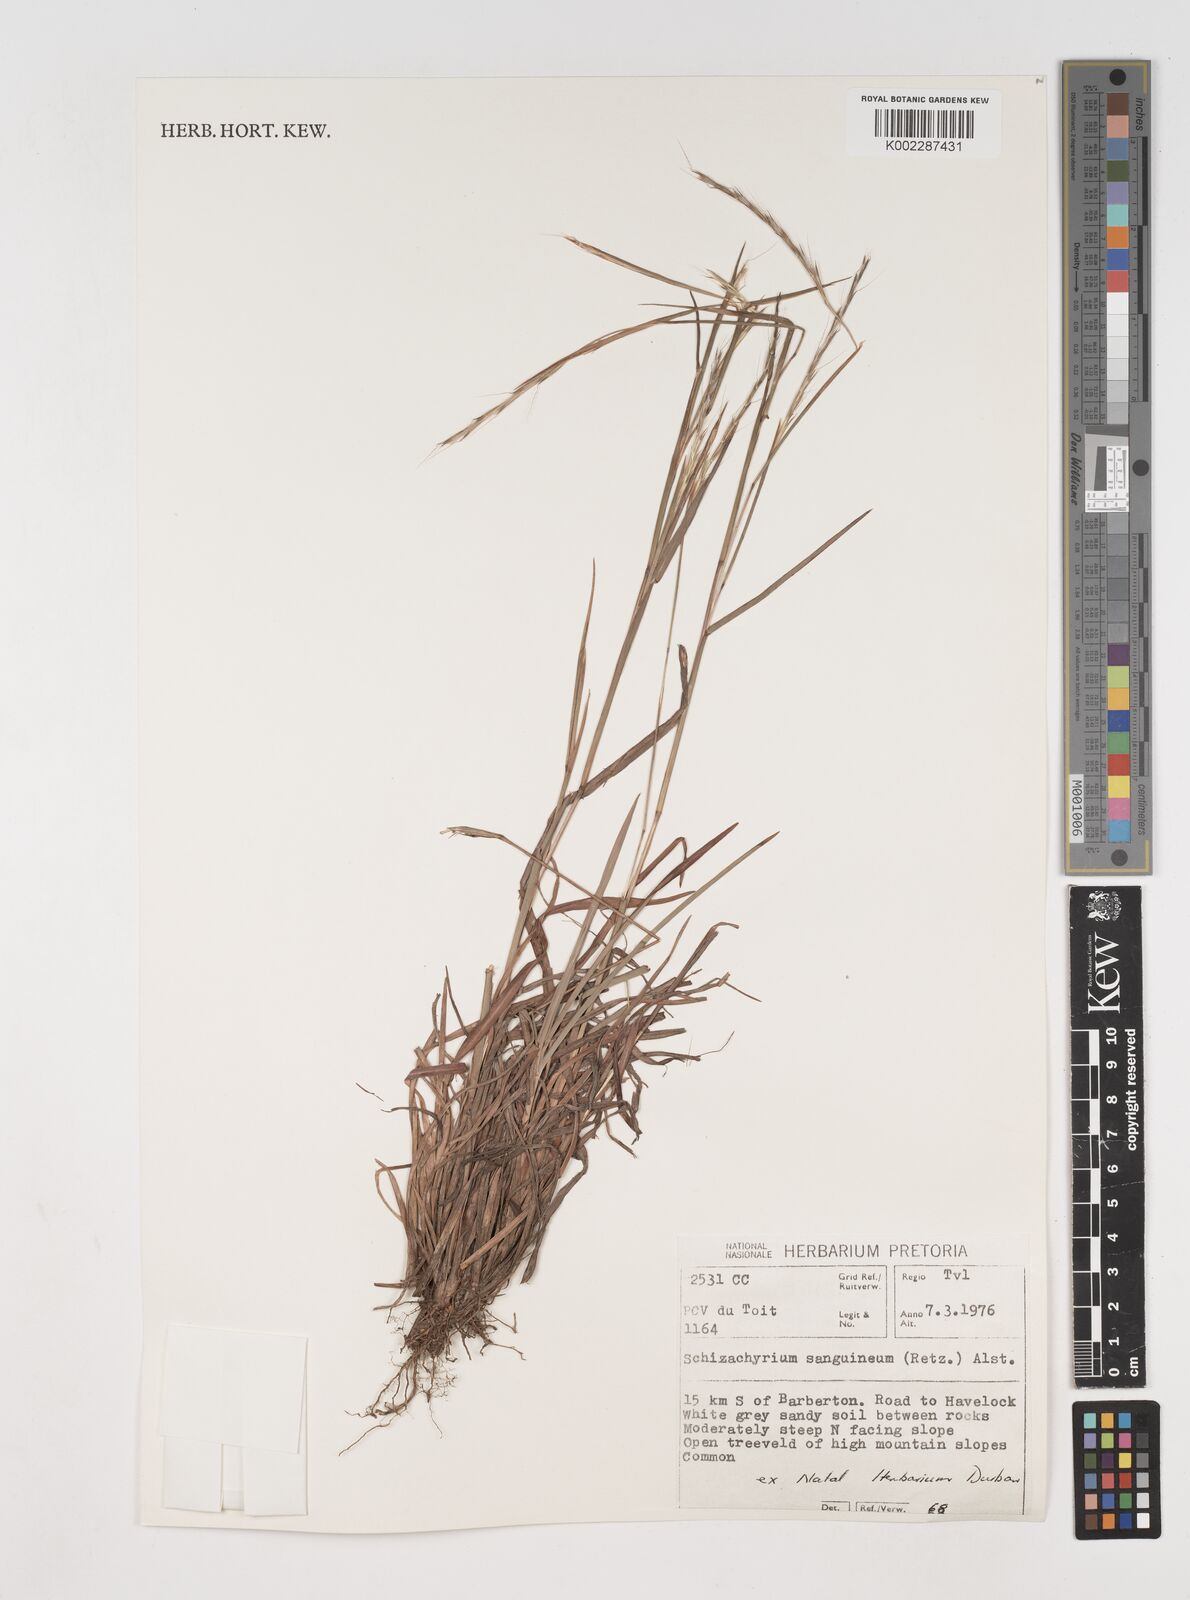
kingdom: Plantae
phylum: Tracheophyta
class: Liliopsida
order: Poales
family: Poaceae
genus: Schizachyrium
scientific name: Schizachyrium sanguineum
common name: Crimson bluestem
